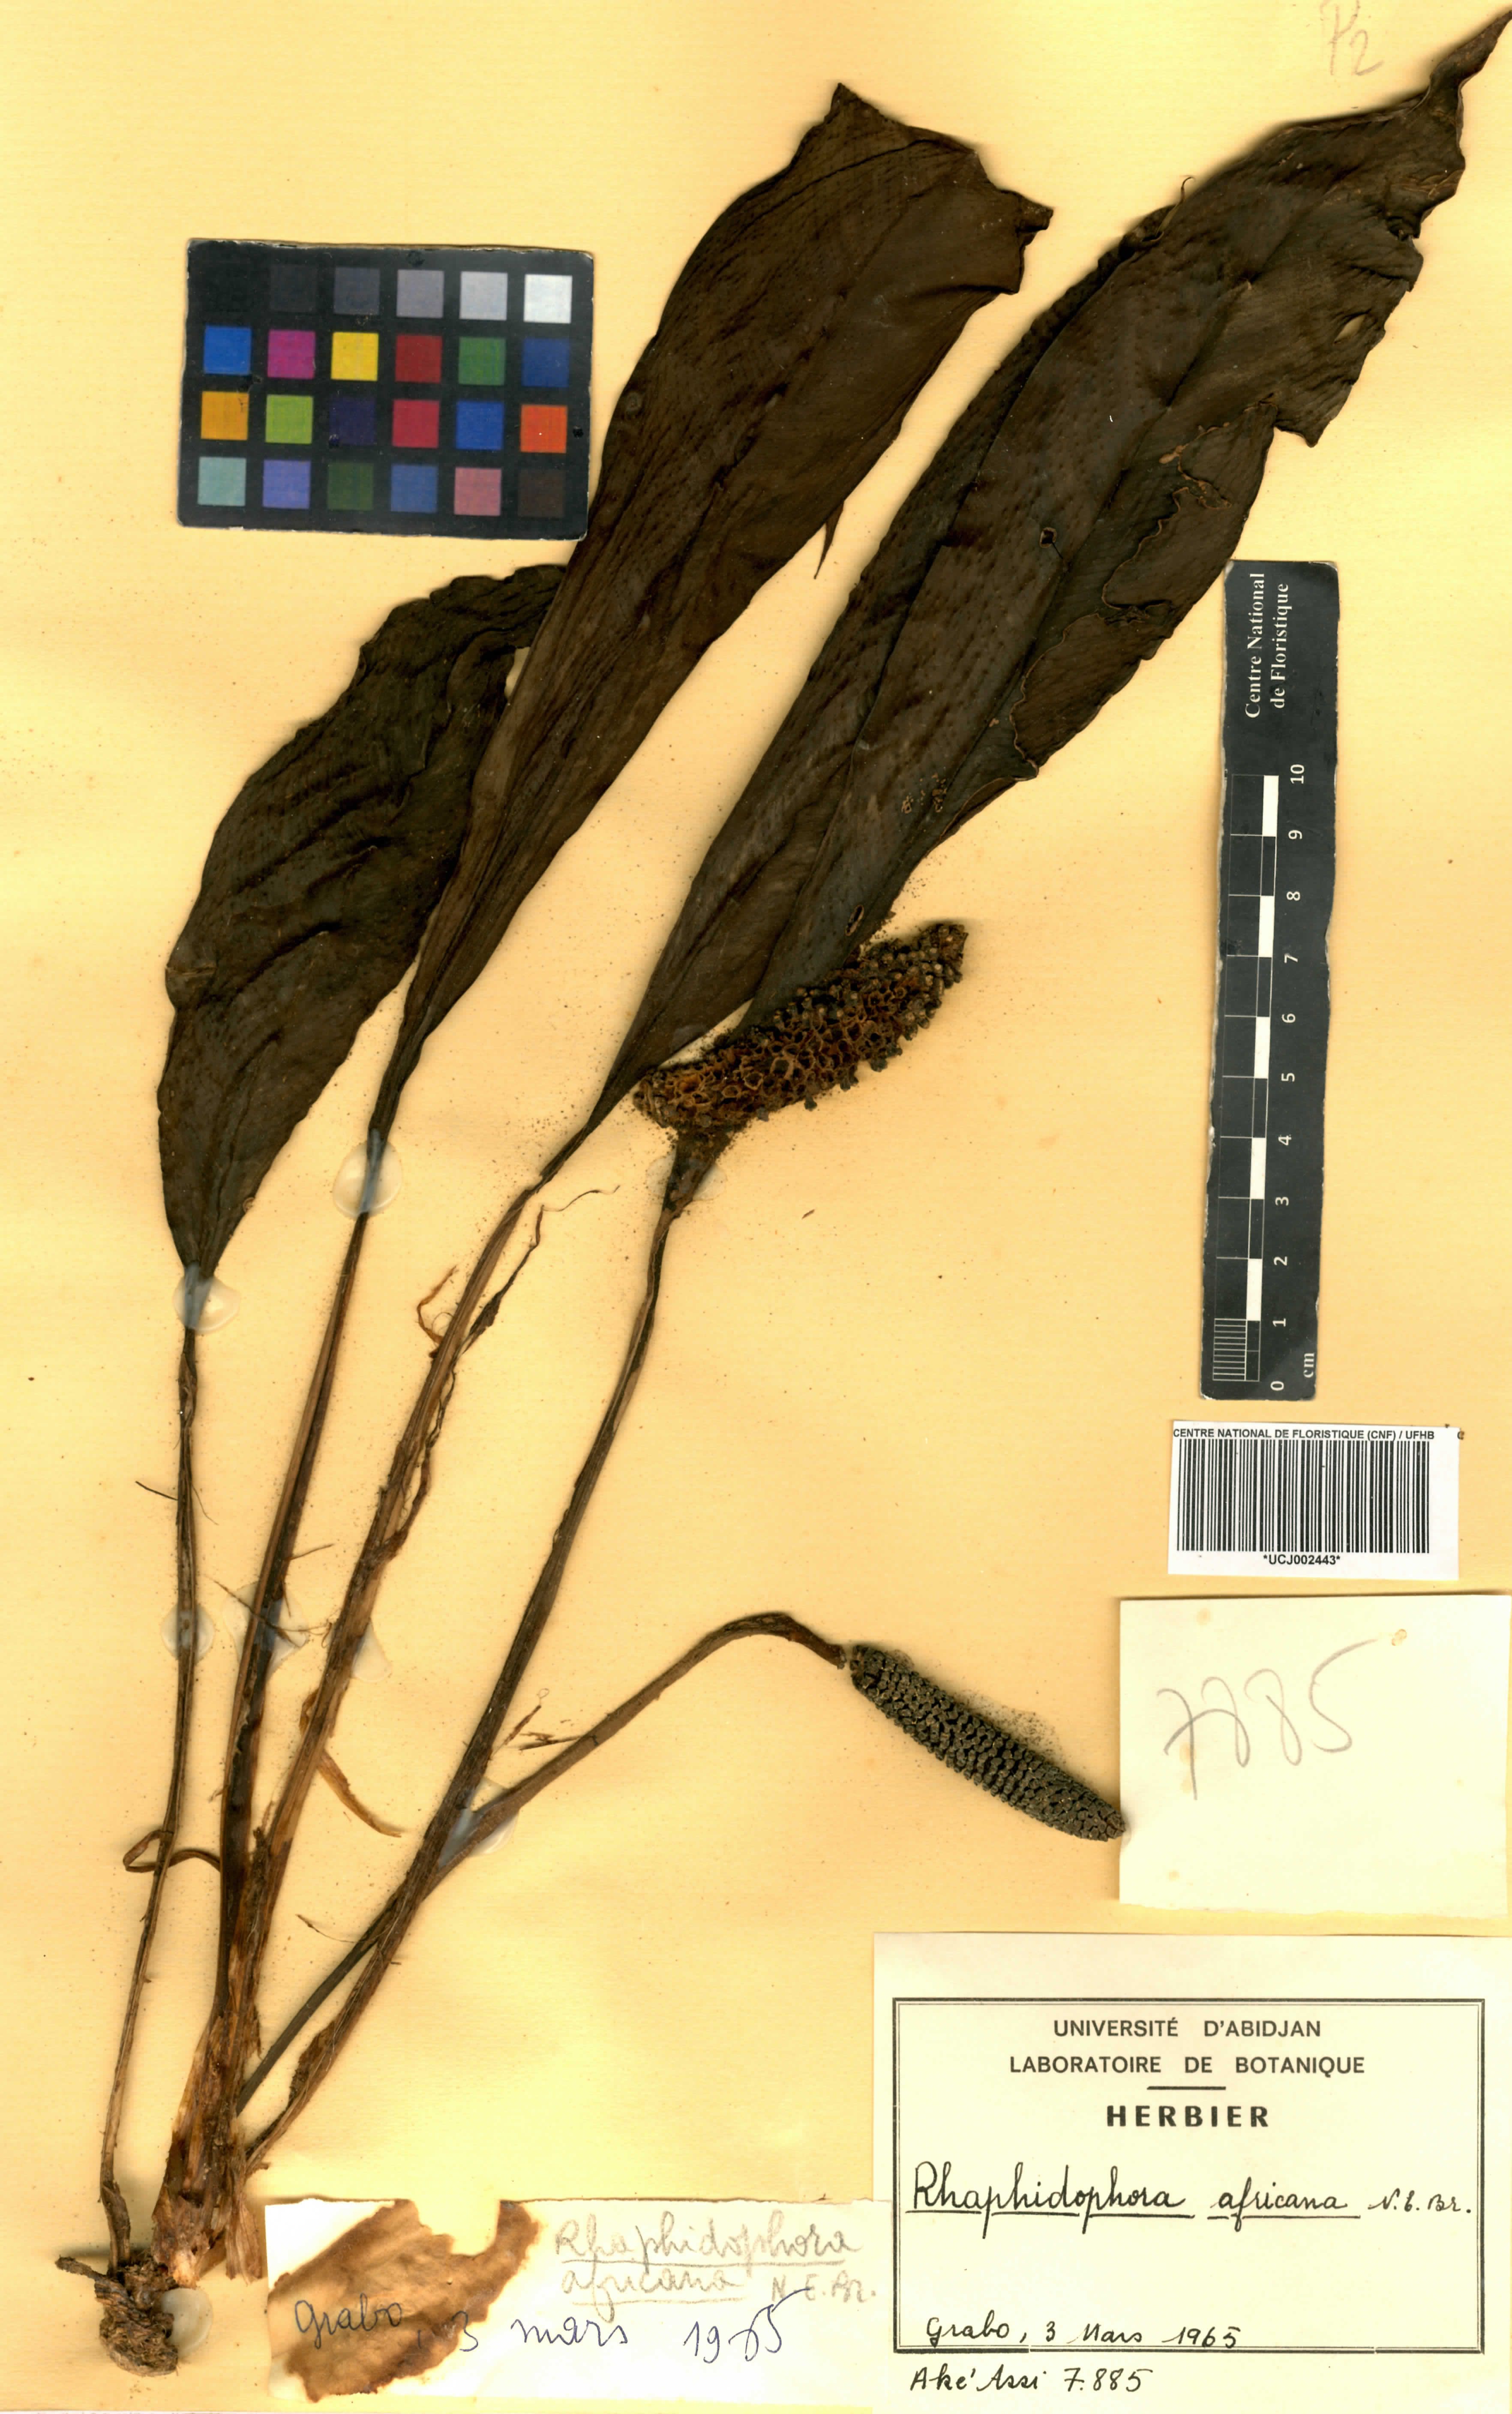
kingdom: Plantae
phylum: Tracheophyta
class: Liliopsida
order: Alismatales
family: Araceae
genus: Rhaphidophora
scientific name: Rhaphidophora africana
